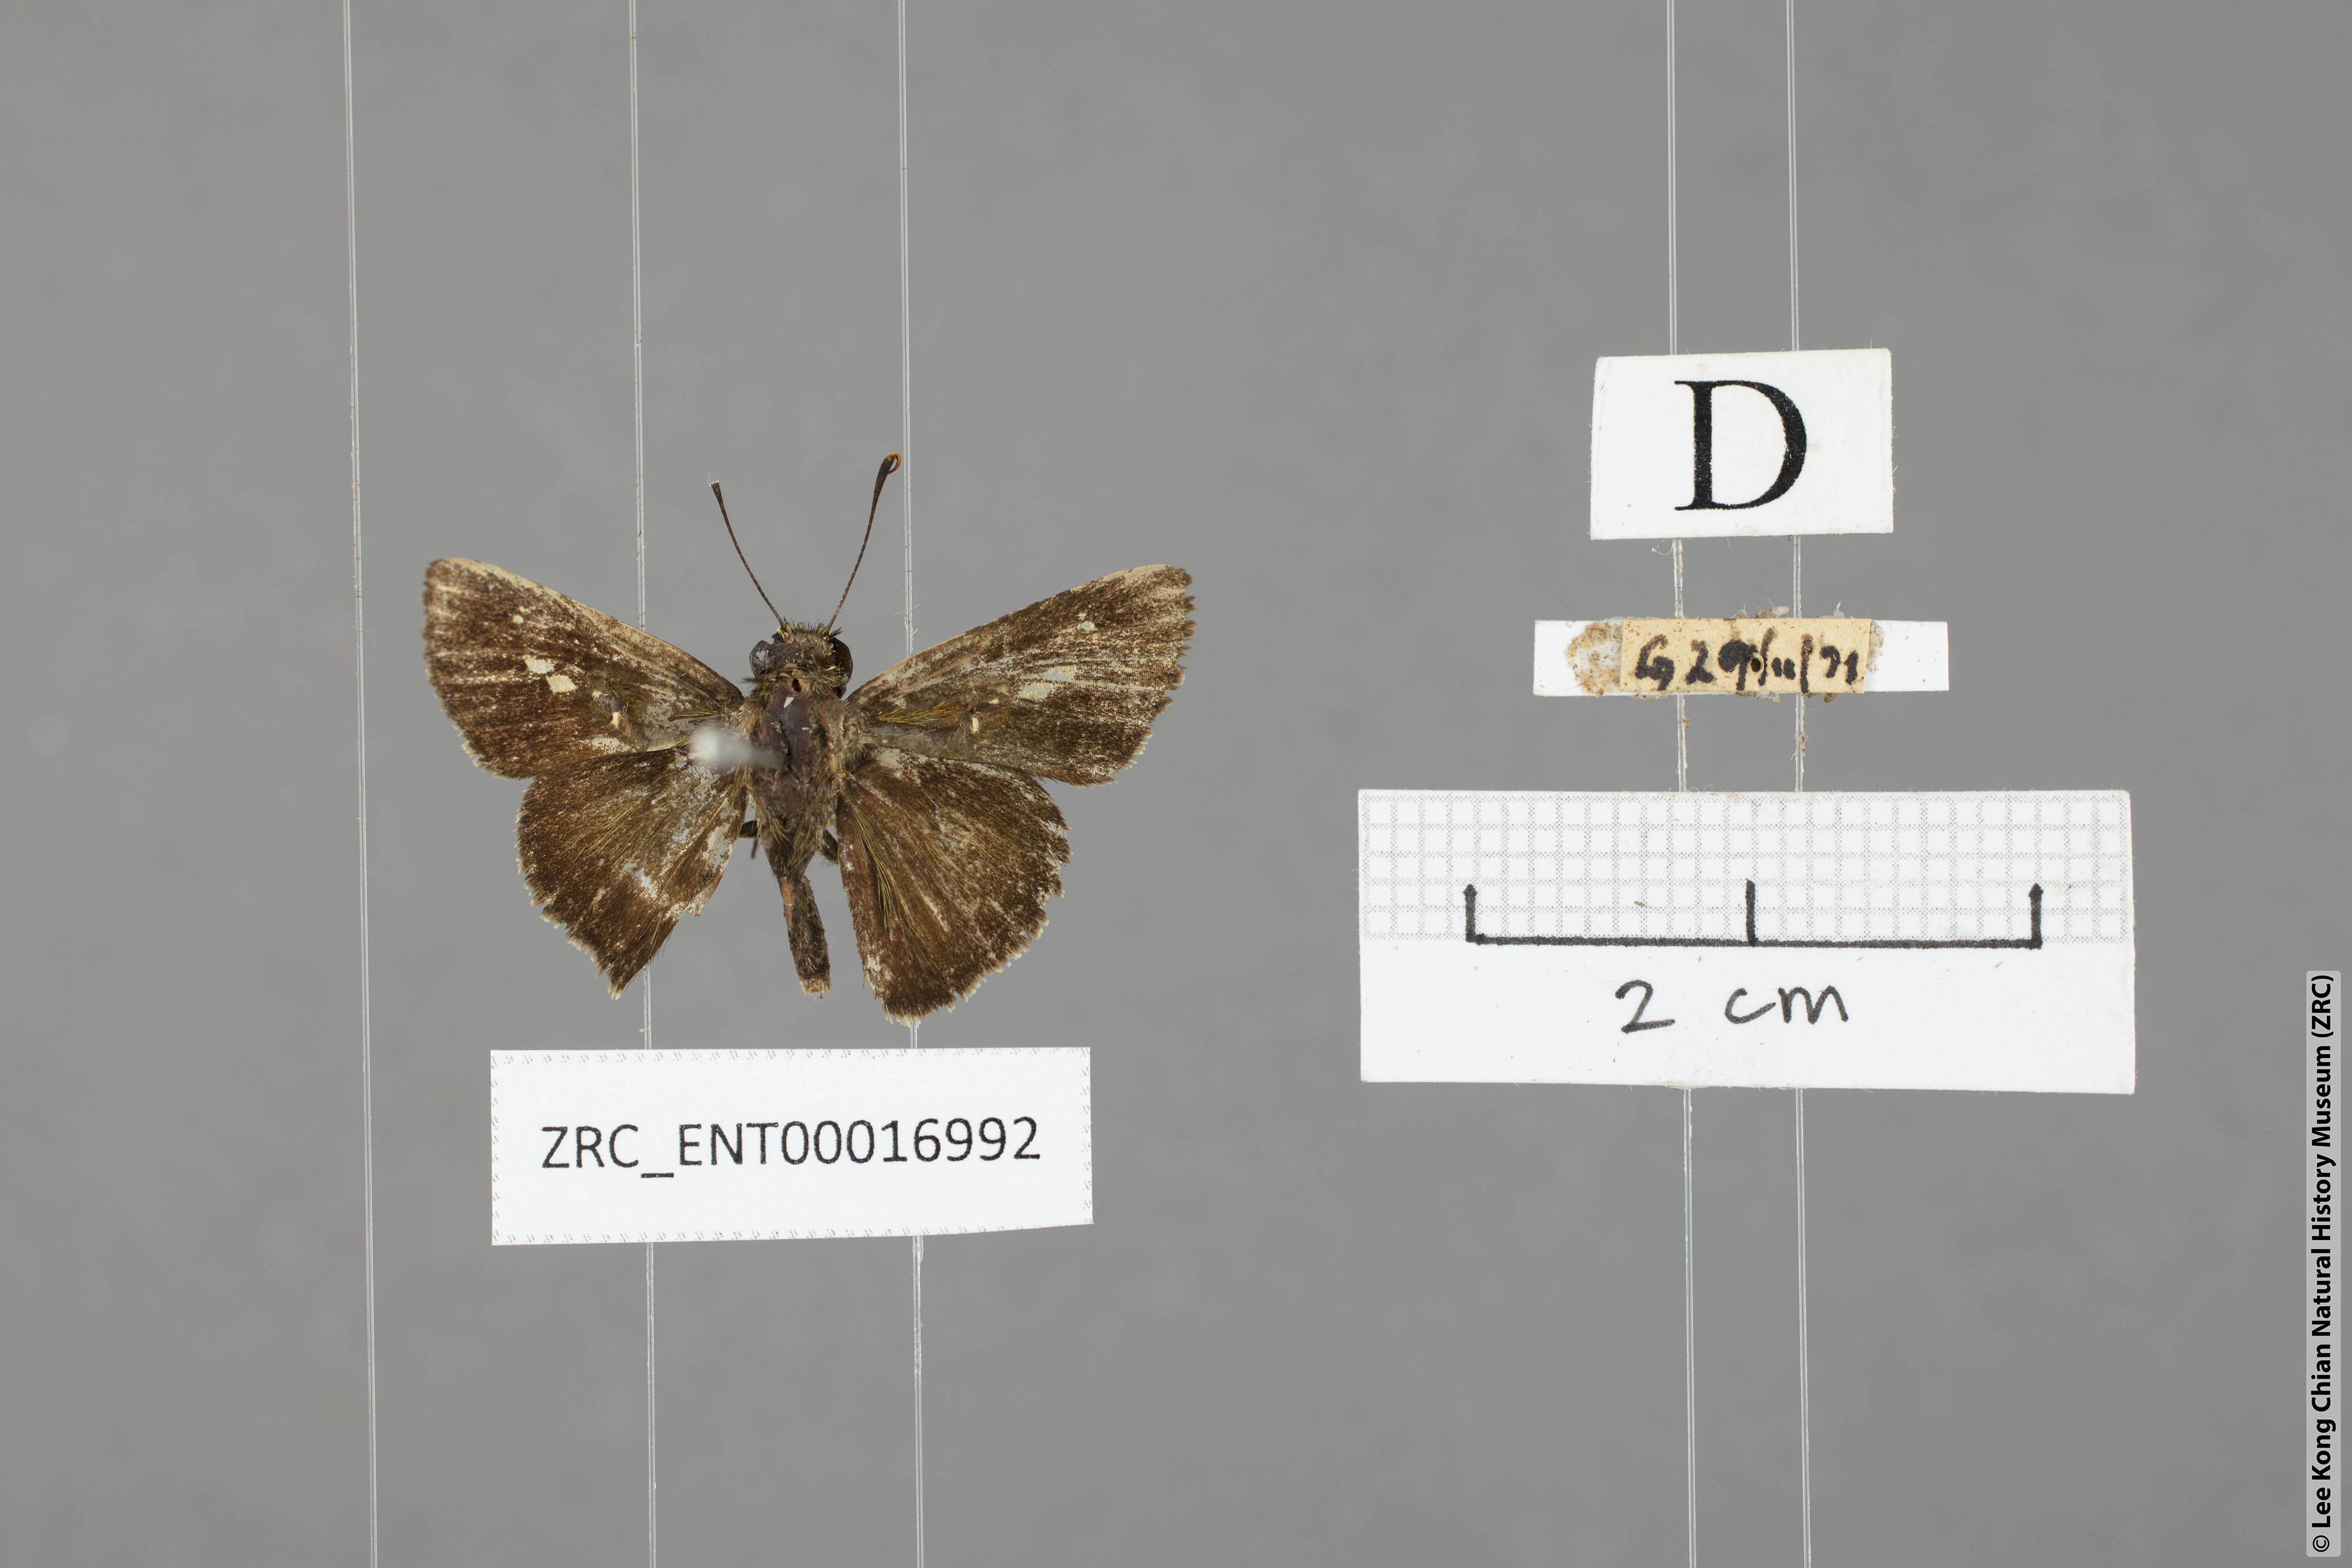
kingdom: Animalia
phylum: Arthropoda
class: Insecta
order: Lepidoptera
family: Hesperiidae
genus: Halpe
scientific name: Halpe flava
